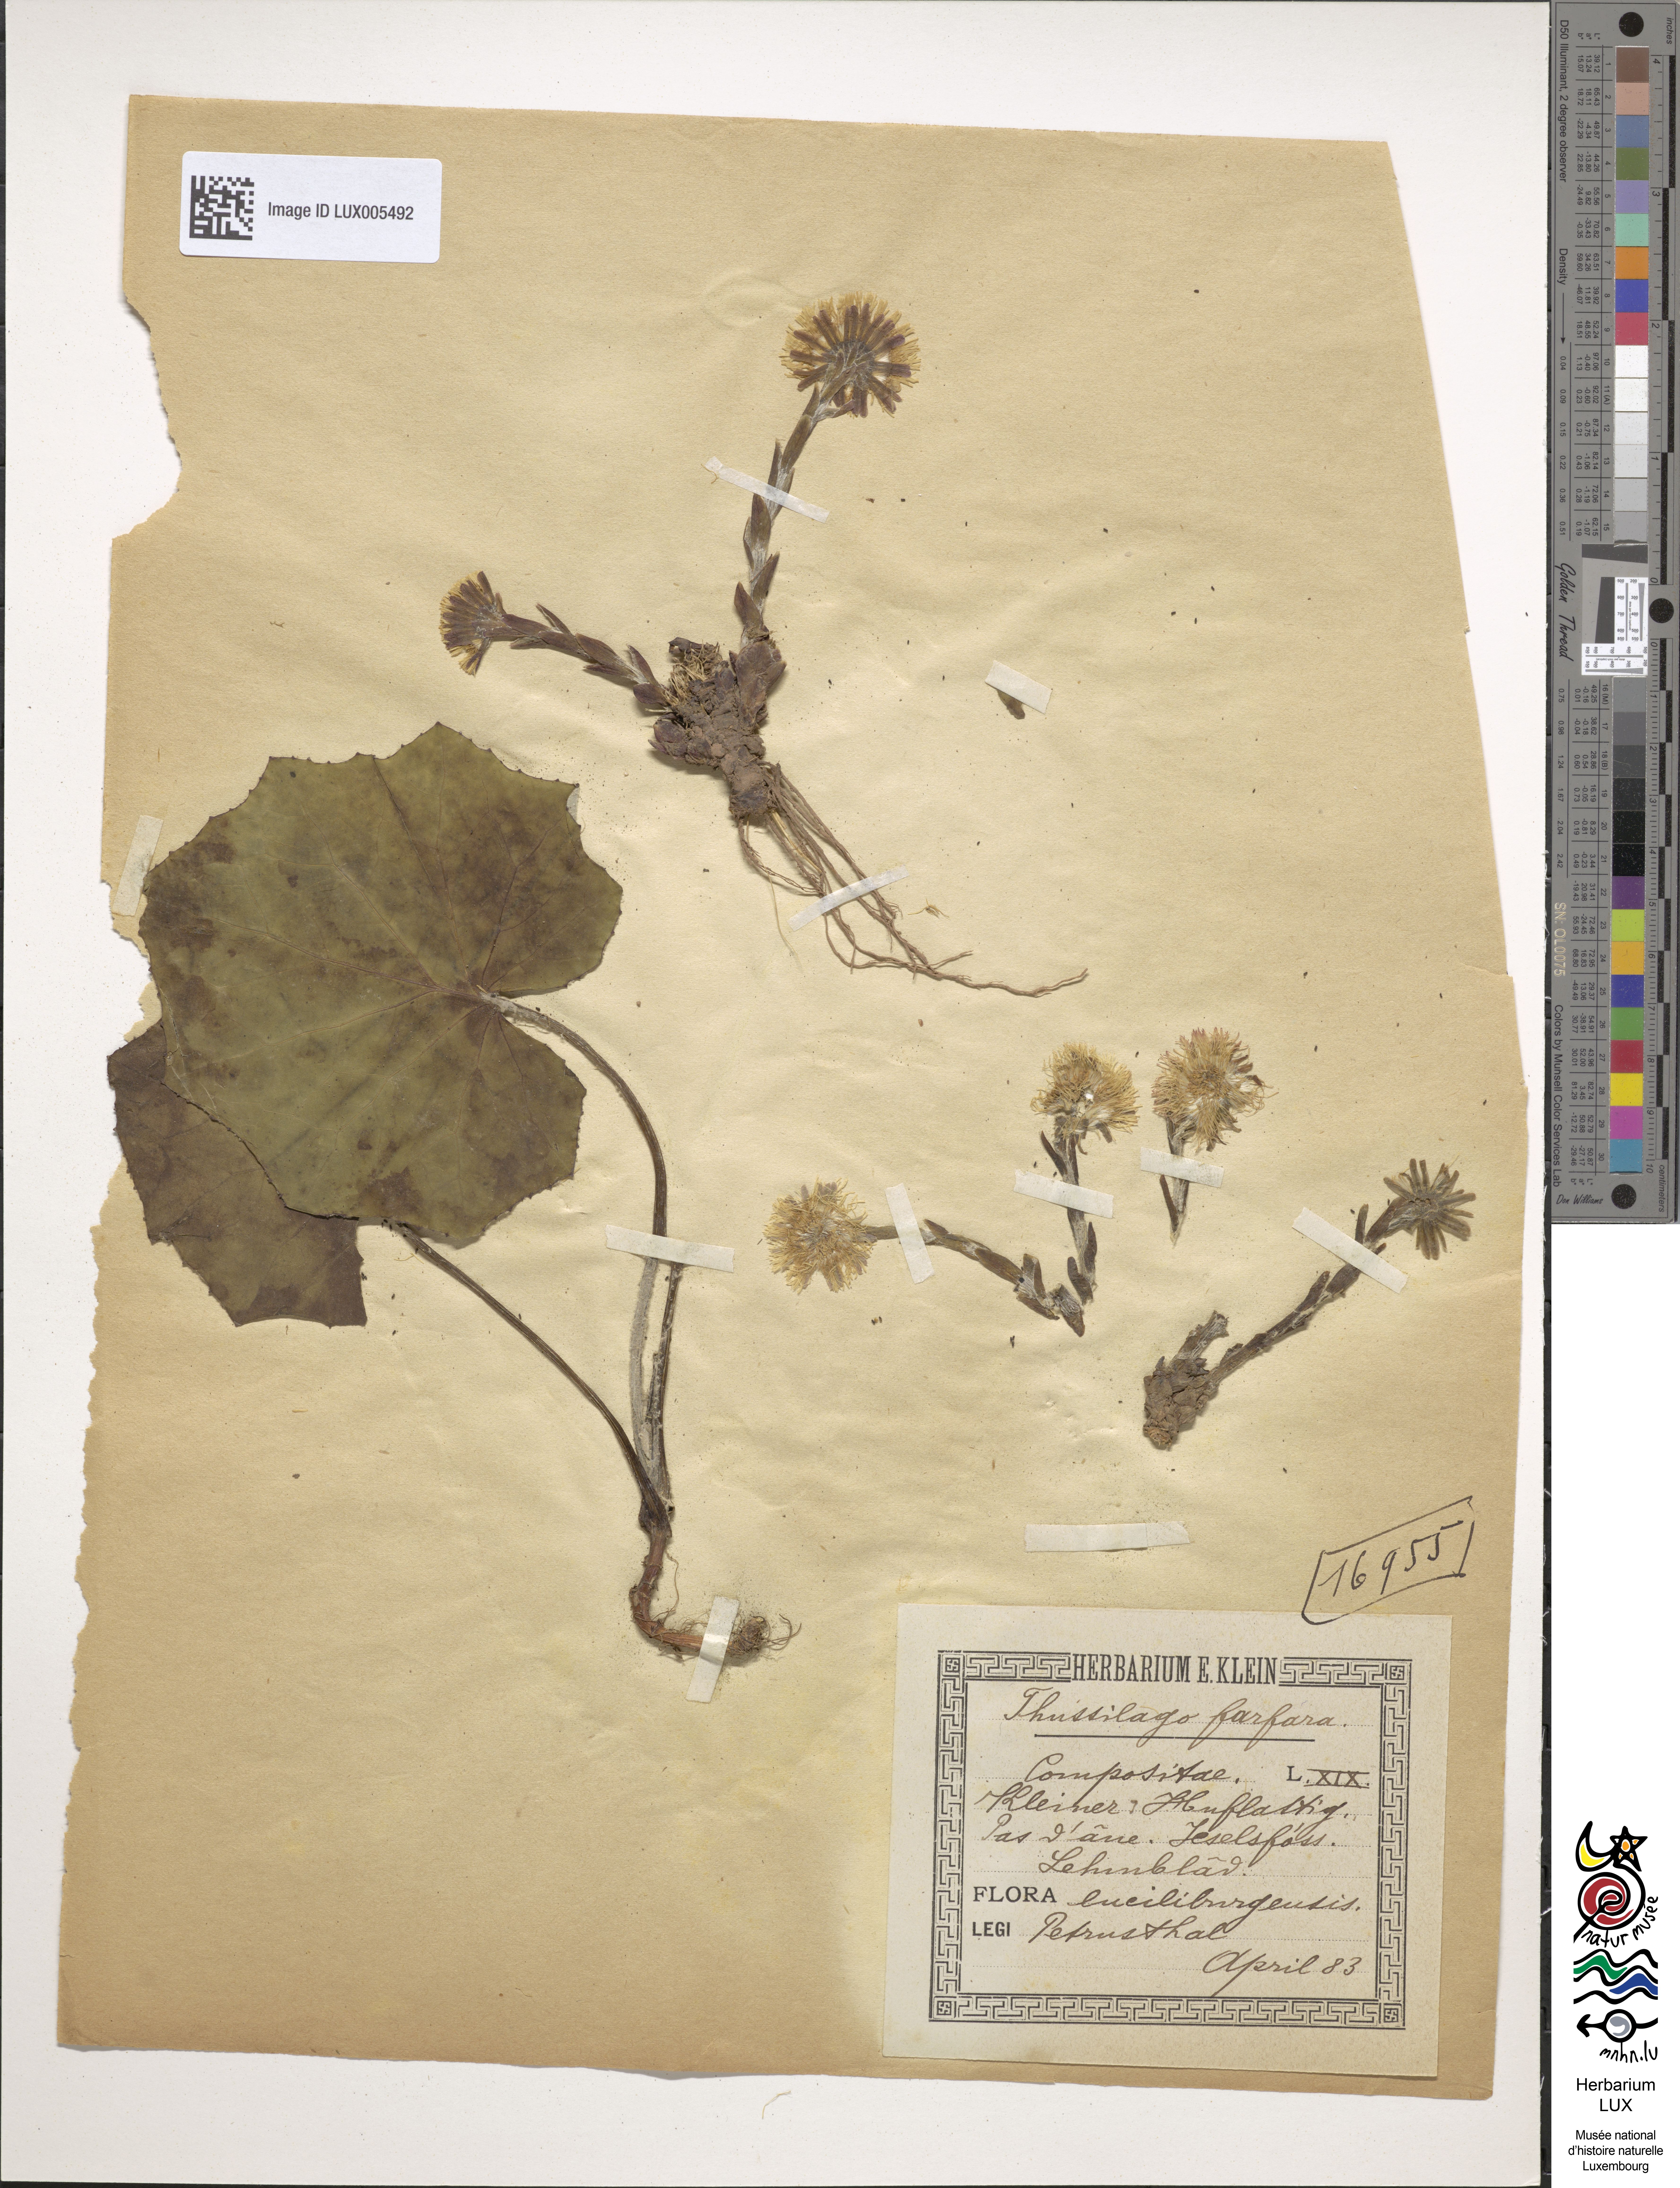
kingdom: Plantae
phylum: Tracheophyta
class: Magnoliopsida
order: Asterales
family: Asteraceae
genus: Tussilago
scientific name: Tussilago farfara
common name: Coltsfoot
